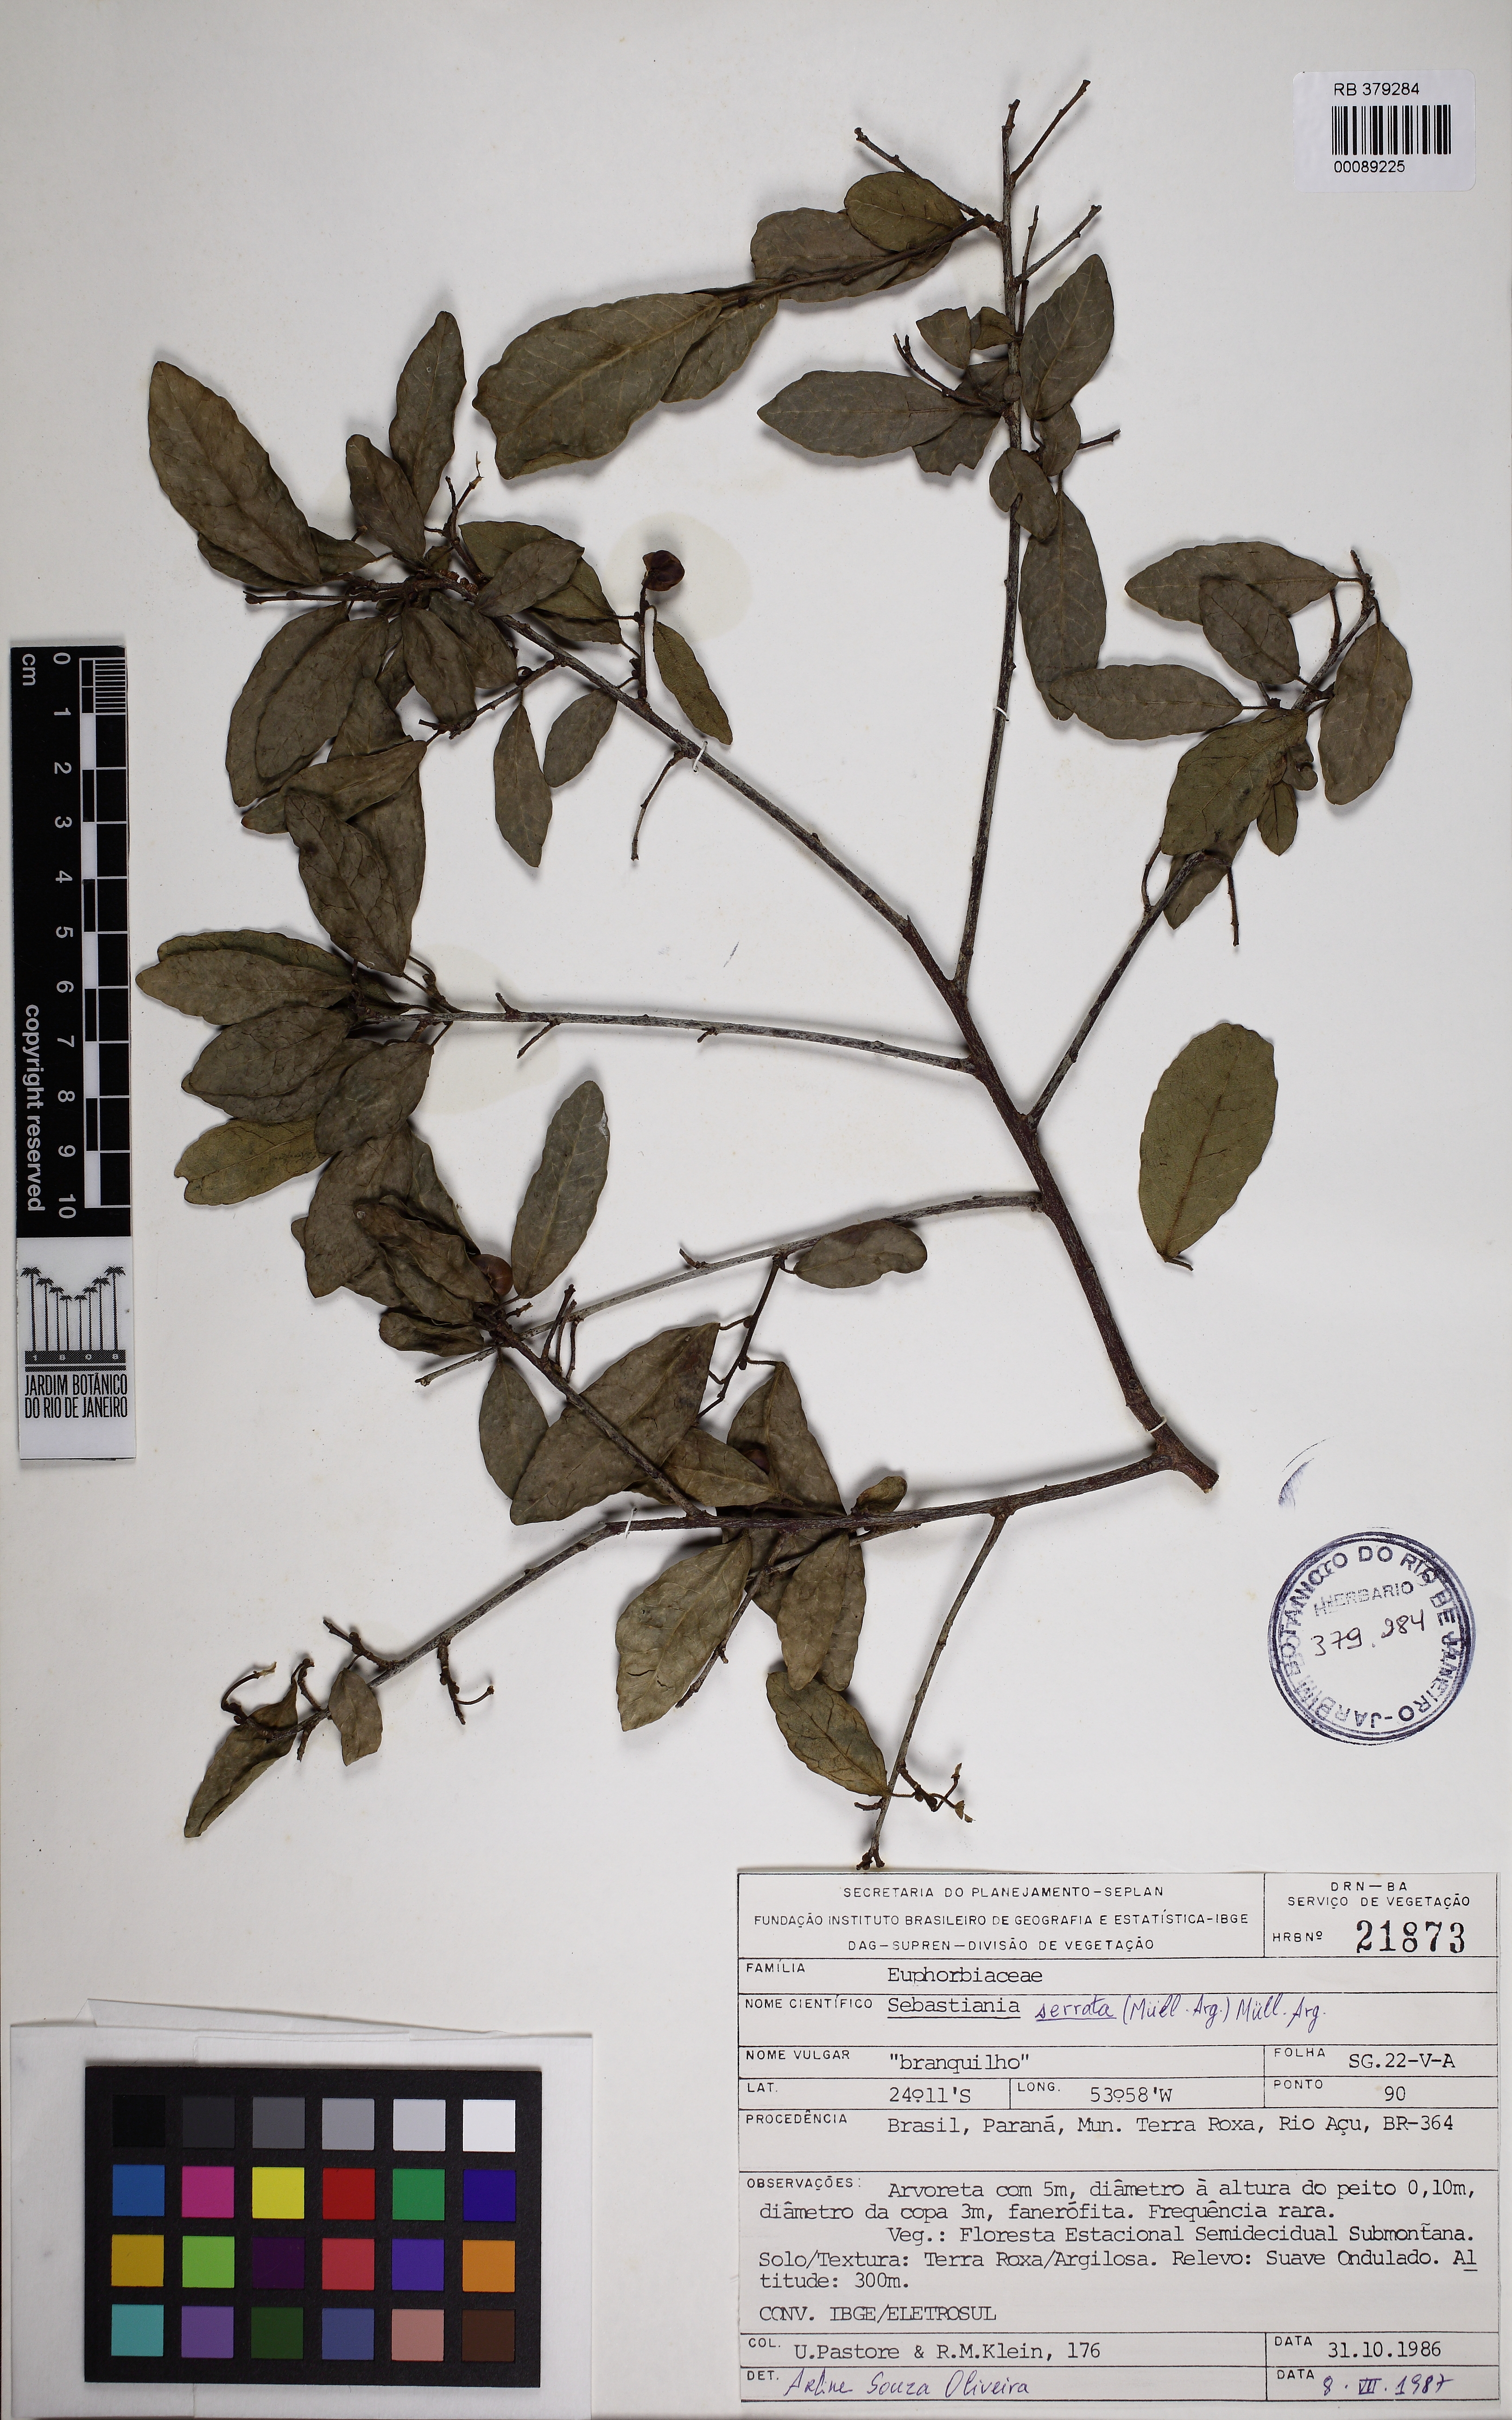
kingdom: Plantae
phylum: Tracheophyta
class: Magnoliopsida
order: Malpighiales
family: Euphorbiaceae
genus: Sebastiania
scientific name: Sebastiania serrata
